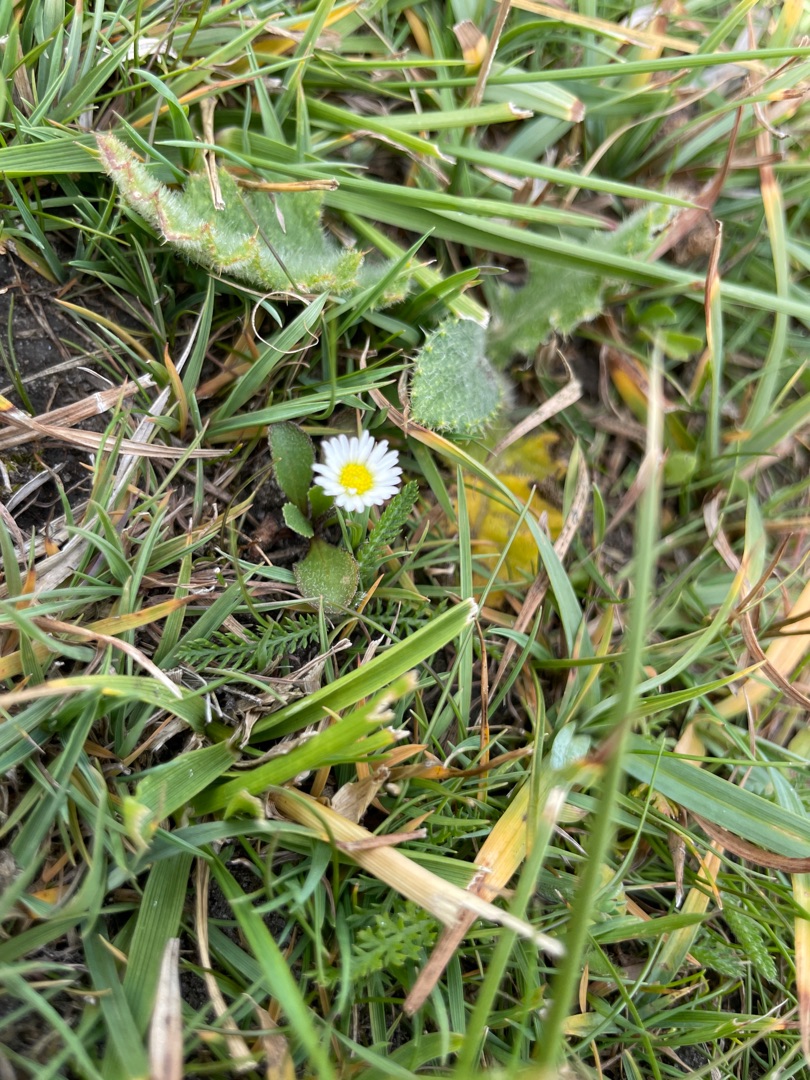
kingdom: Plantae
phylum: Tracheophyta
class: Magnoliopsida
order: Asterales
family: Asteraceae
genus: Bellis
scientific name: Bellis perennis
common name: Tusindfryd
